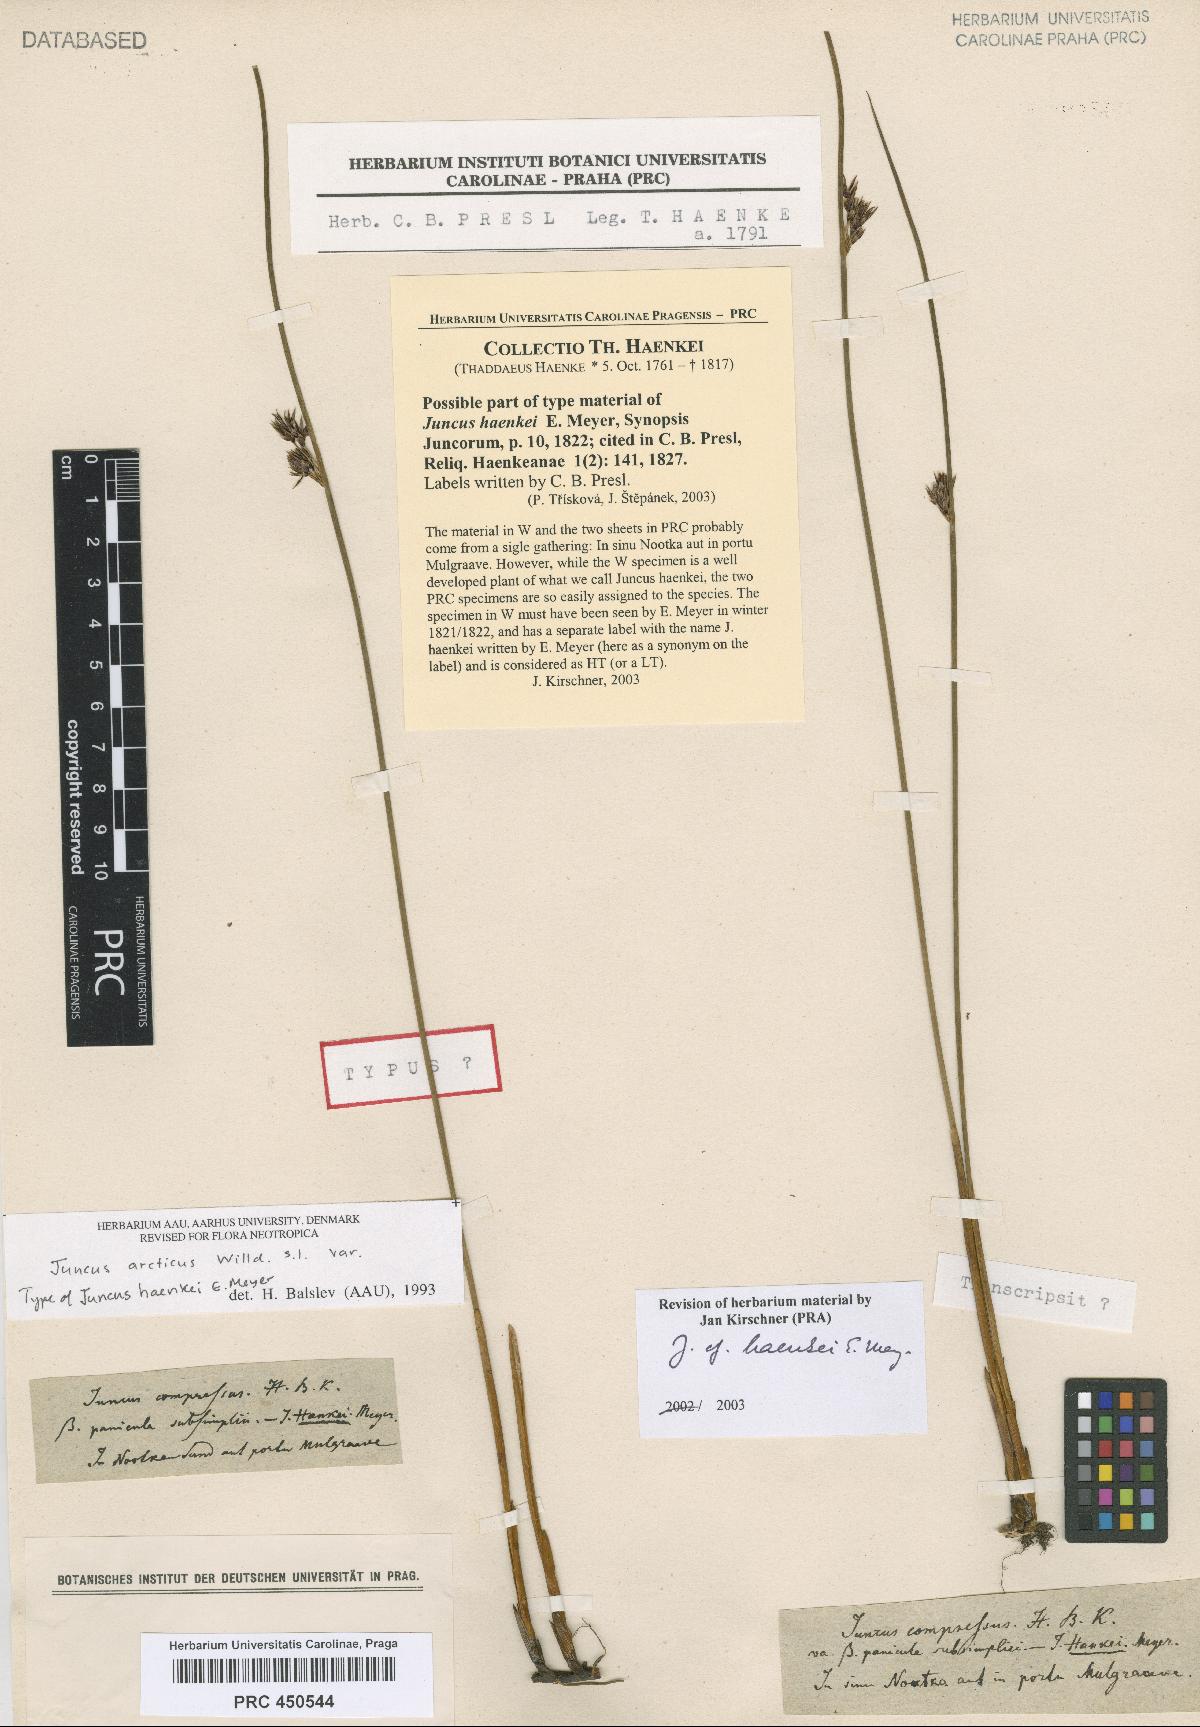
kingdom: Plantae
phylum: Tracheophyta
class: Liliopsida
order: Poales
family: Juncaceae
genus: Juncus
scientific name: Juncus arcticus
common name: Arctic rush
